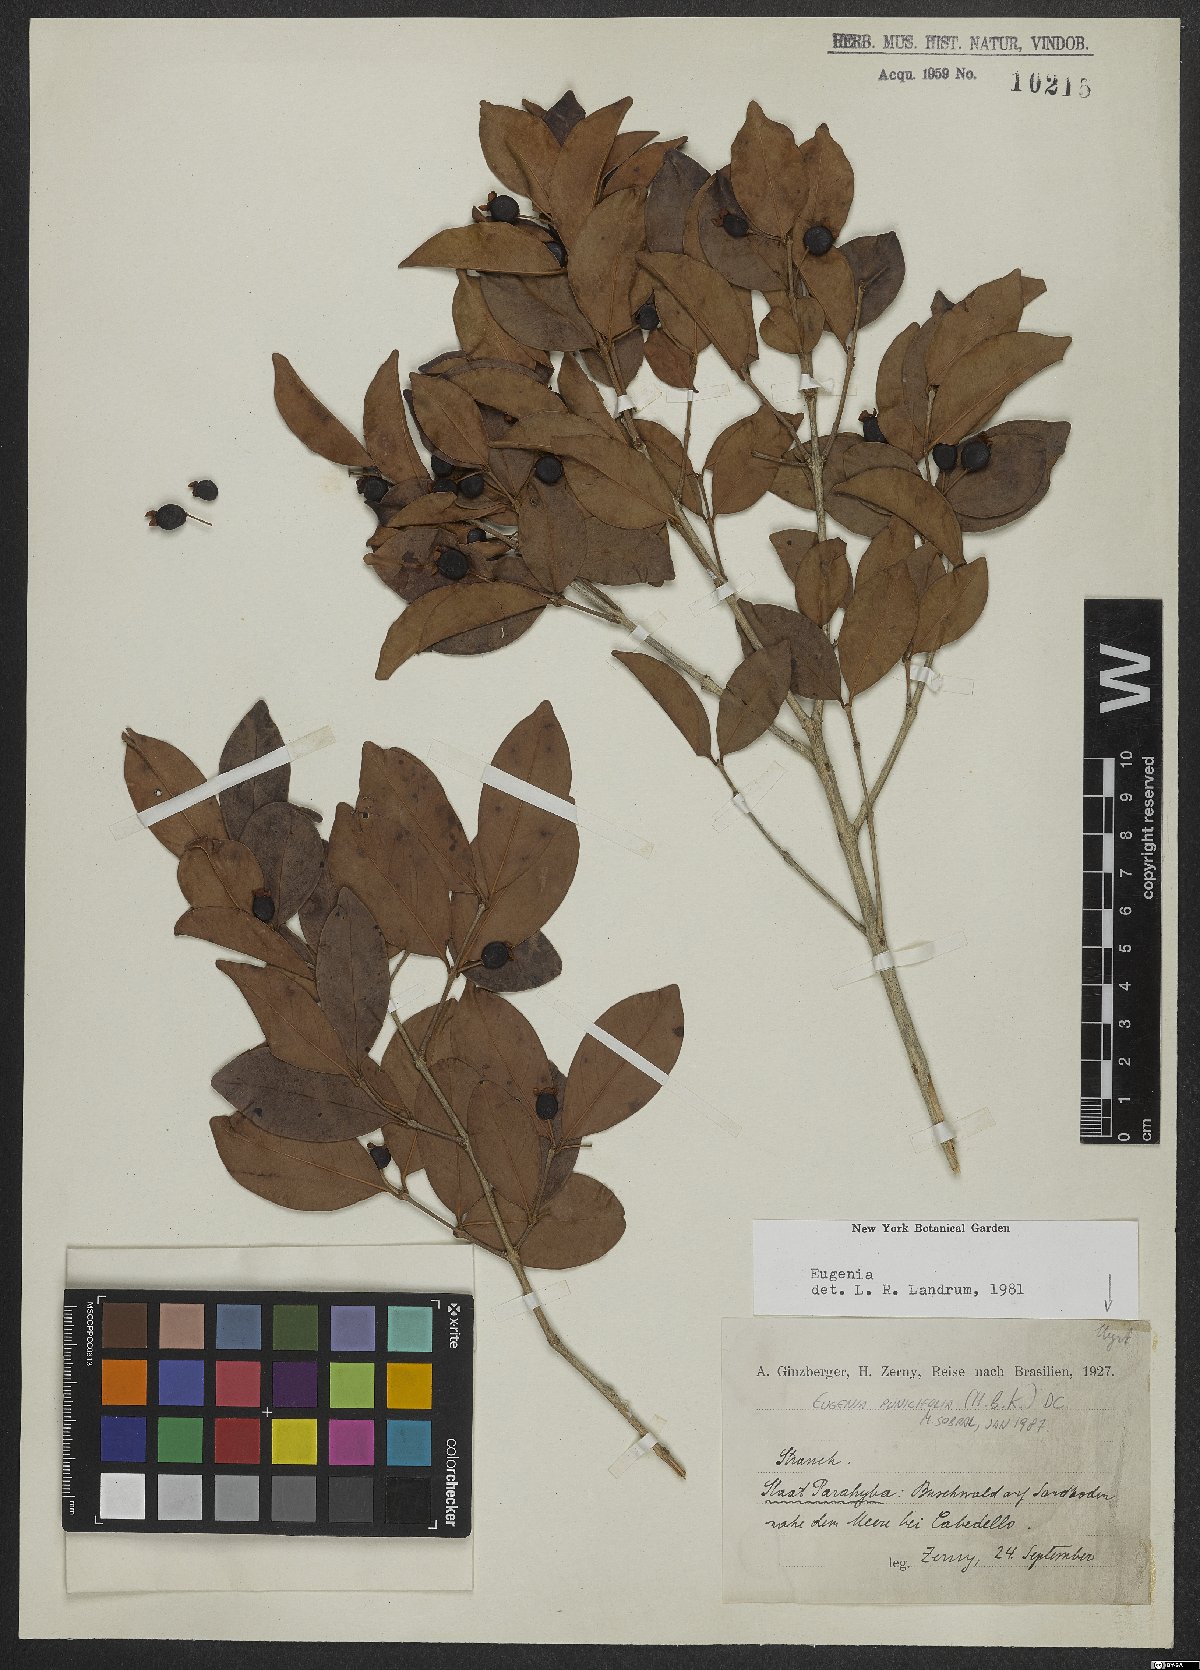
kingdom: Plantae
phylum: Tracheophyta
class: Magnoliopsida
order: Myrtales
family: Myrtaceae
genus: Eugenia
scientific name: Eugenia punicifolia
